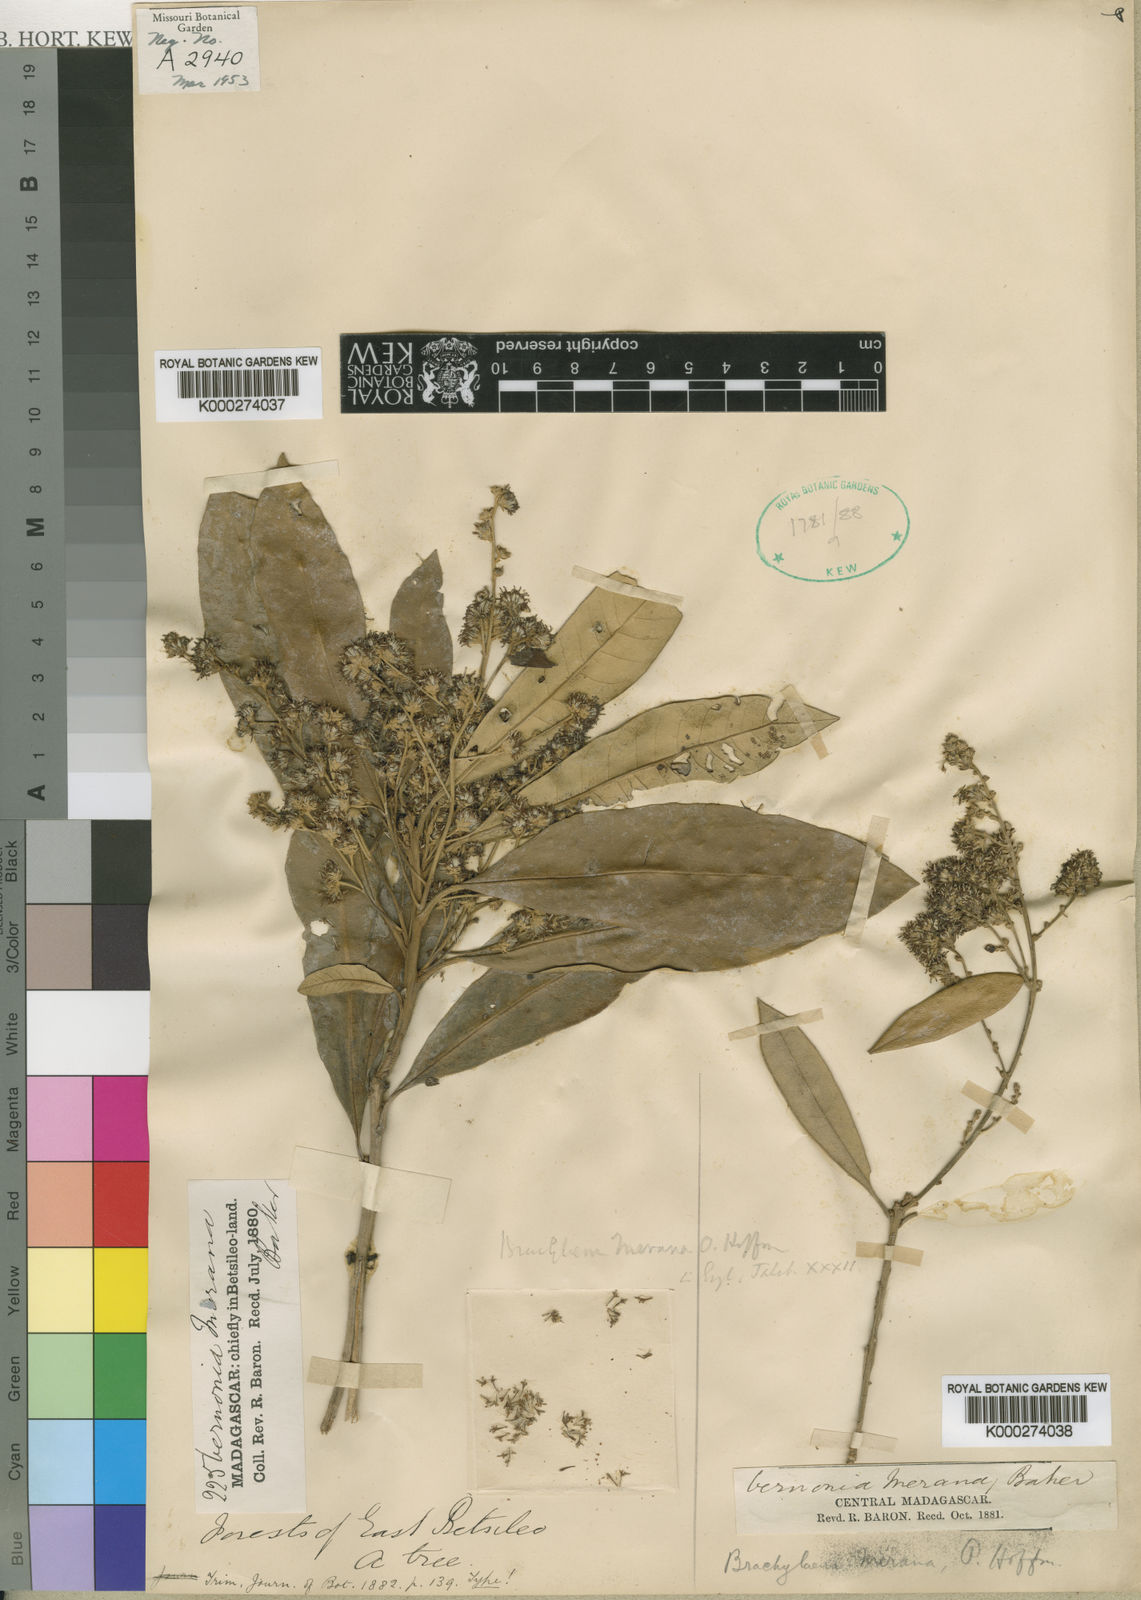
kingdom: Plantae
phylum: Tracheophyta
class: Magnoliopsida
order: Asterales
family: Asteraceae
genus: Brachylaena
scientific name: Brachylaena
